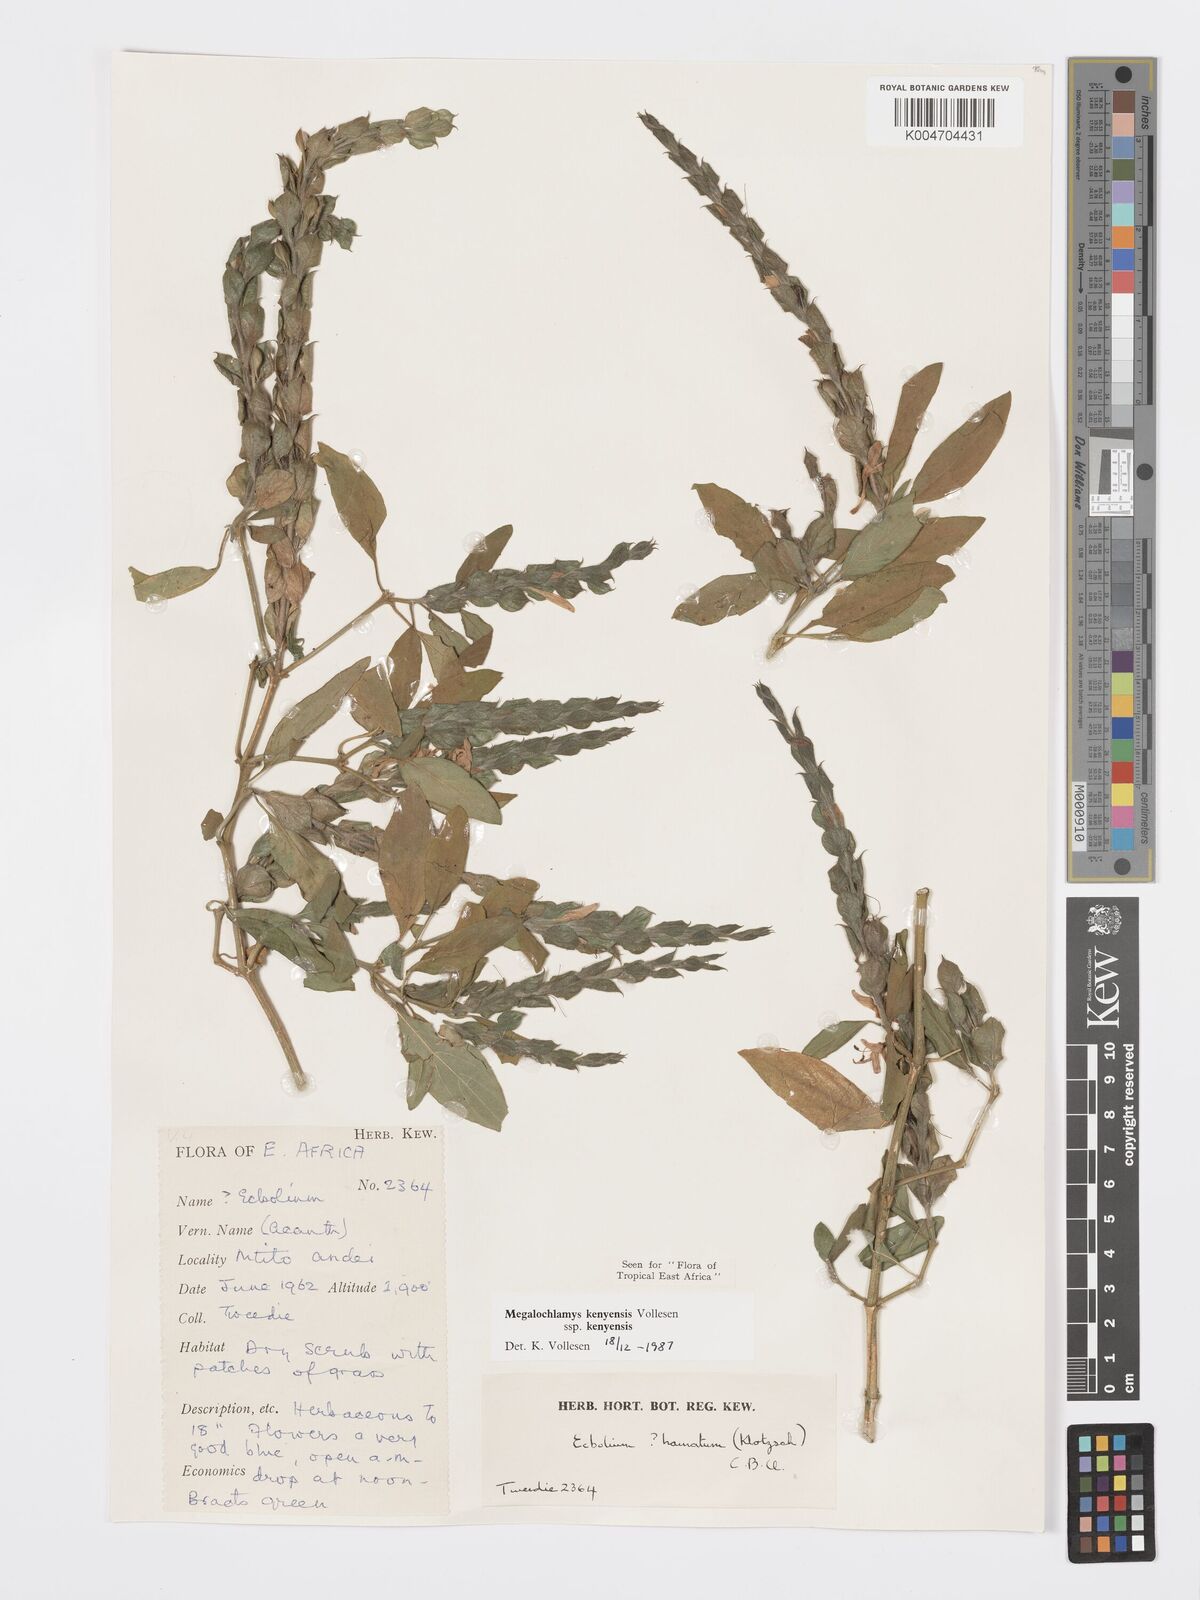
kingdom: Plantae
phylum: Tracheophyta
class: Magnoliopsida
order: Lamiales
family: Acanthaceae
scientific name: Acanthaceae
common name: Acanthaceae
